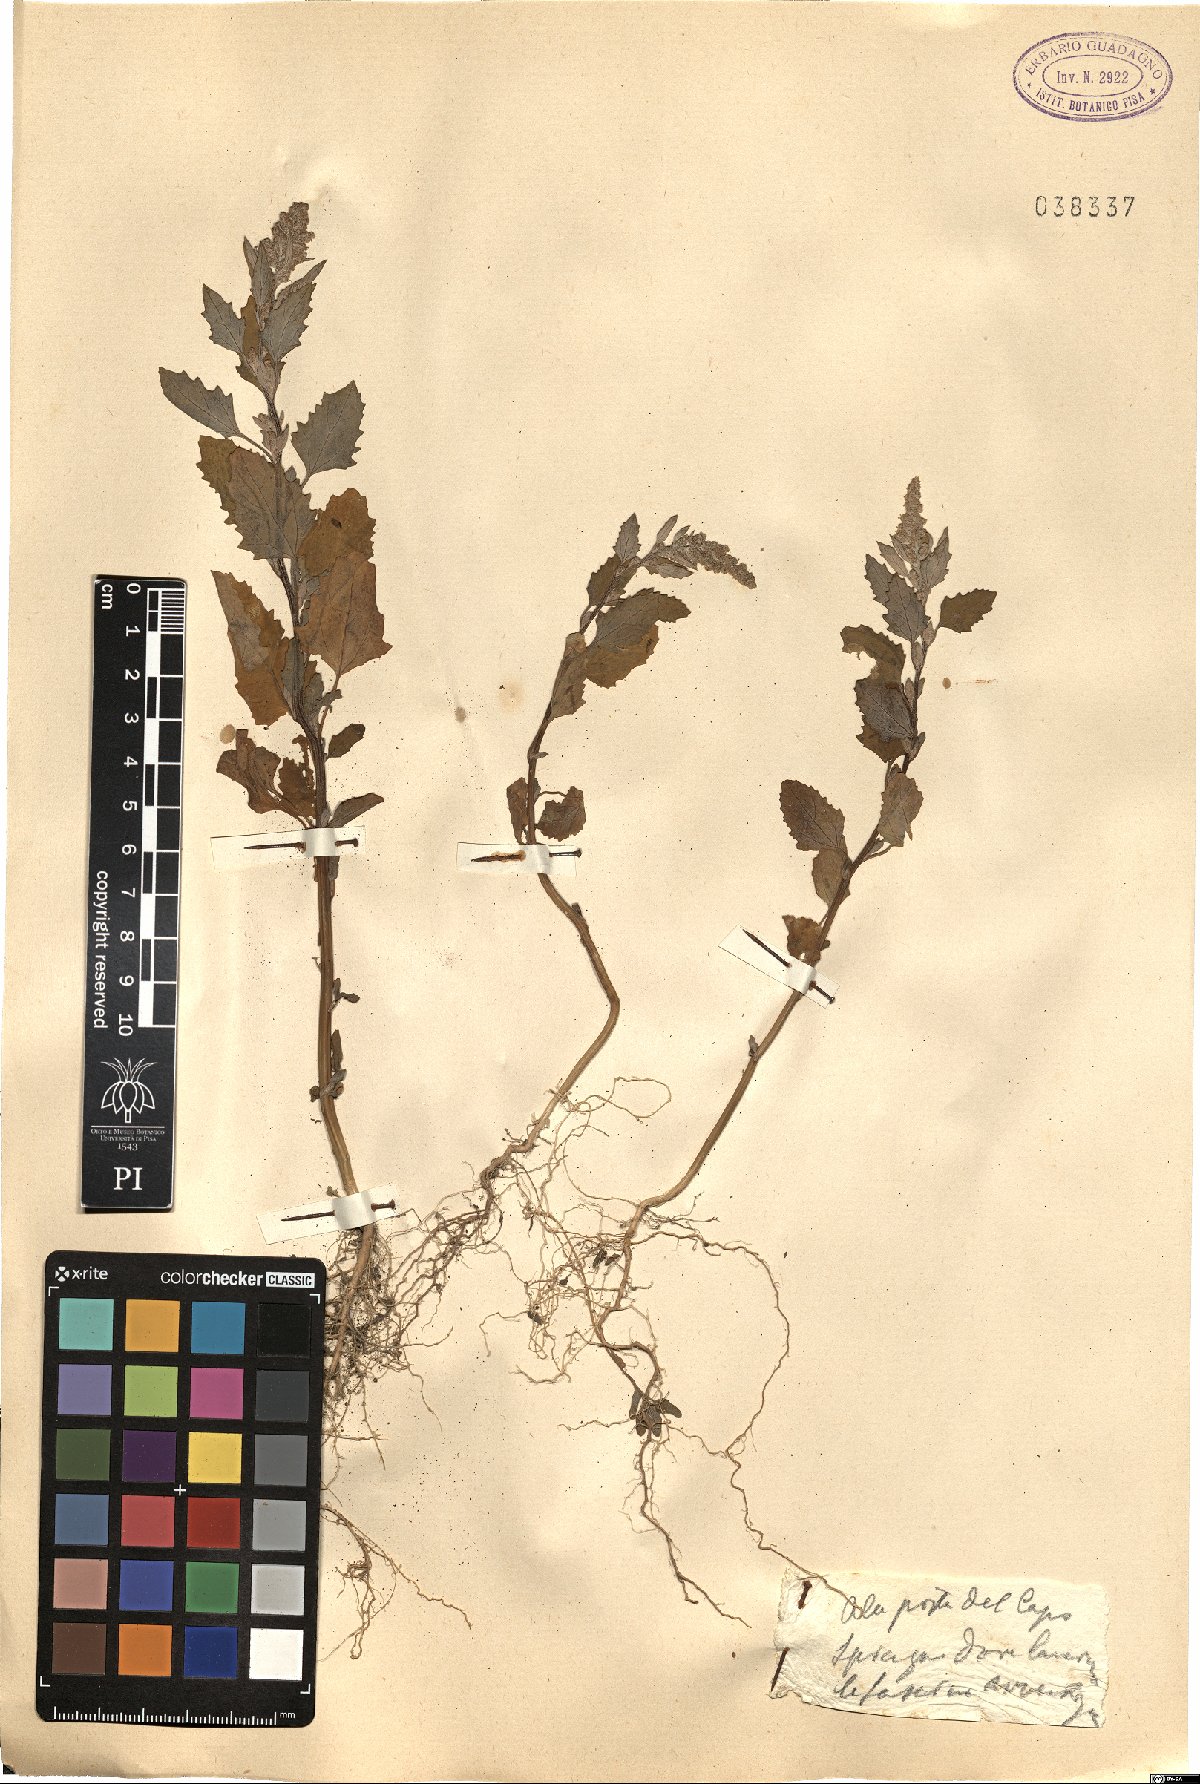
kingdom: Plantae
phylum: Tracheophyta
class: Magnoliopsida
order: Caryophyllales
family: Amaranthaceae
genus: Chenopodium
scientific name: Chenopodium
